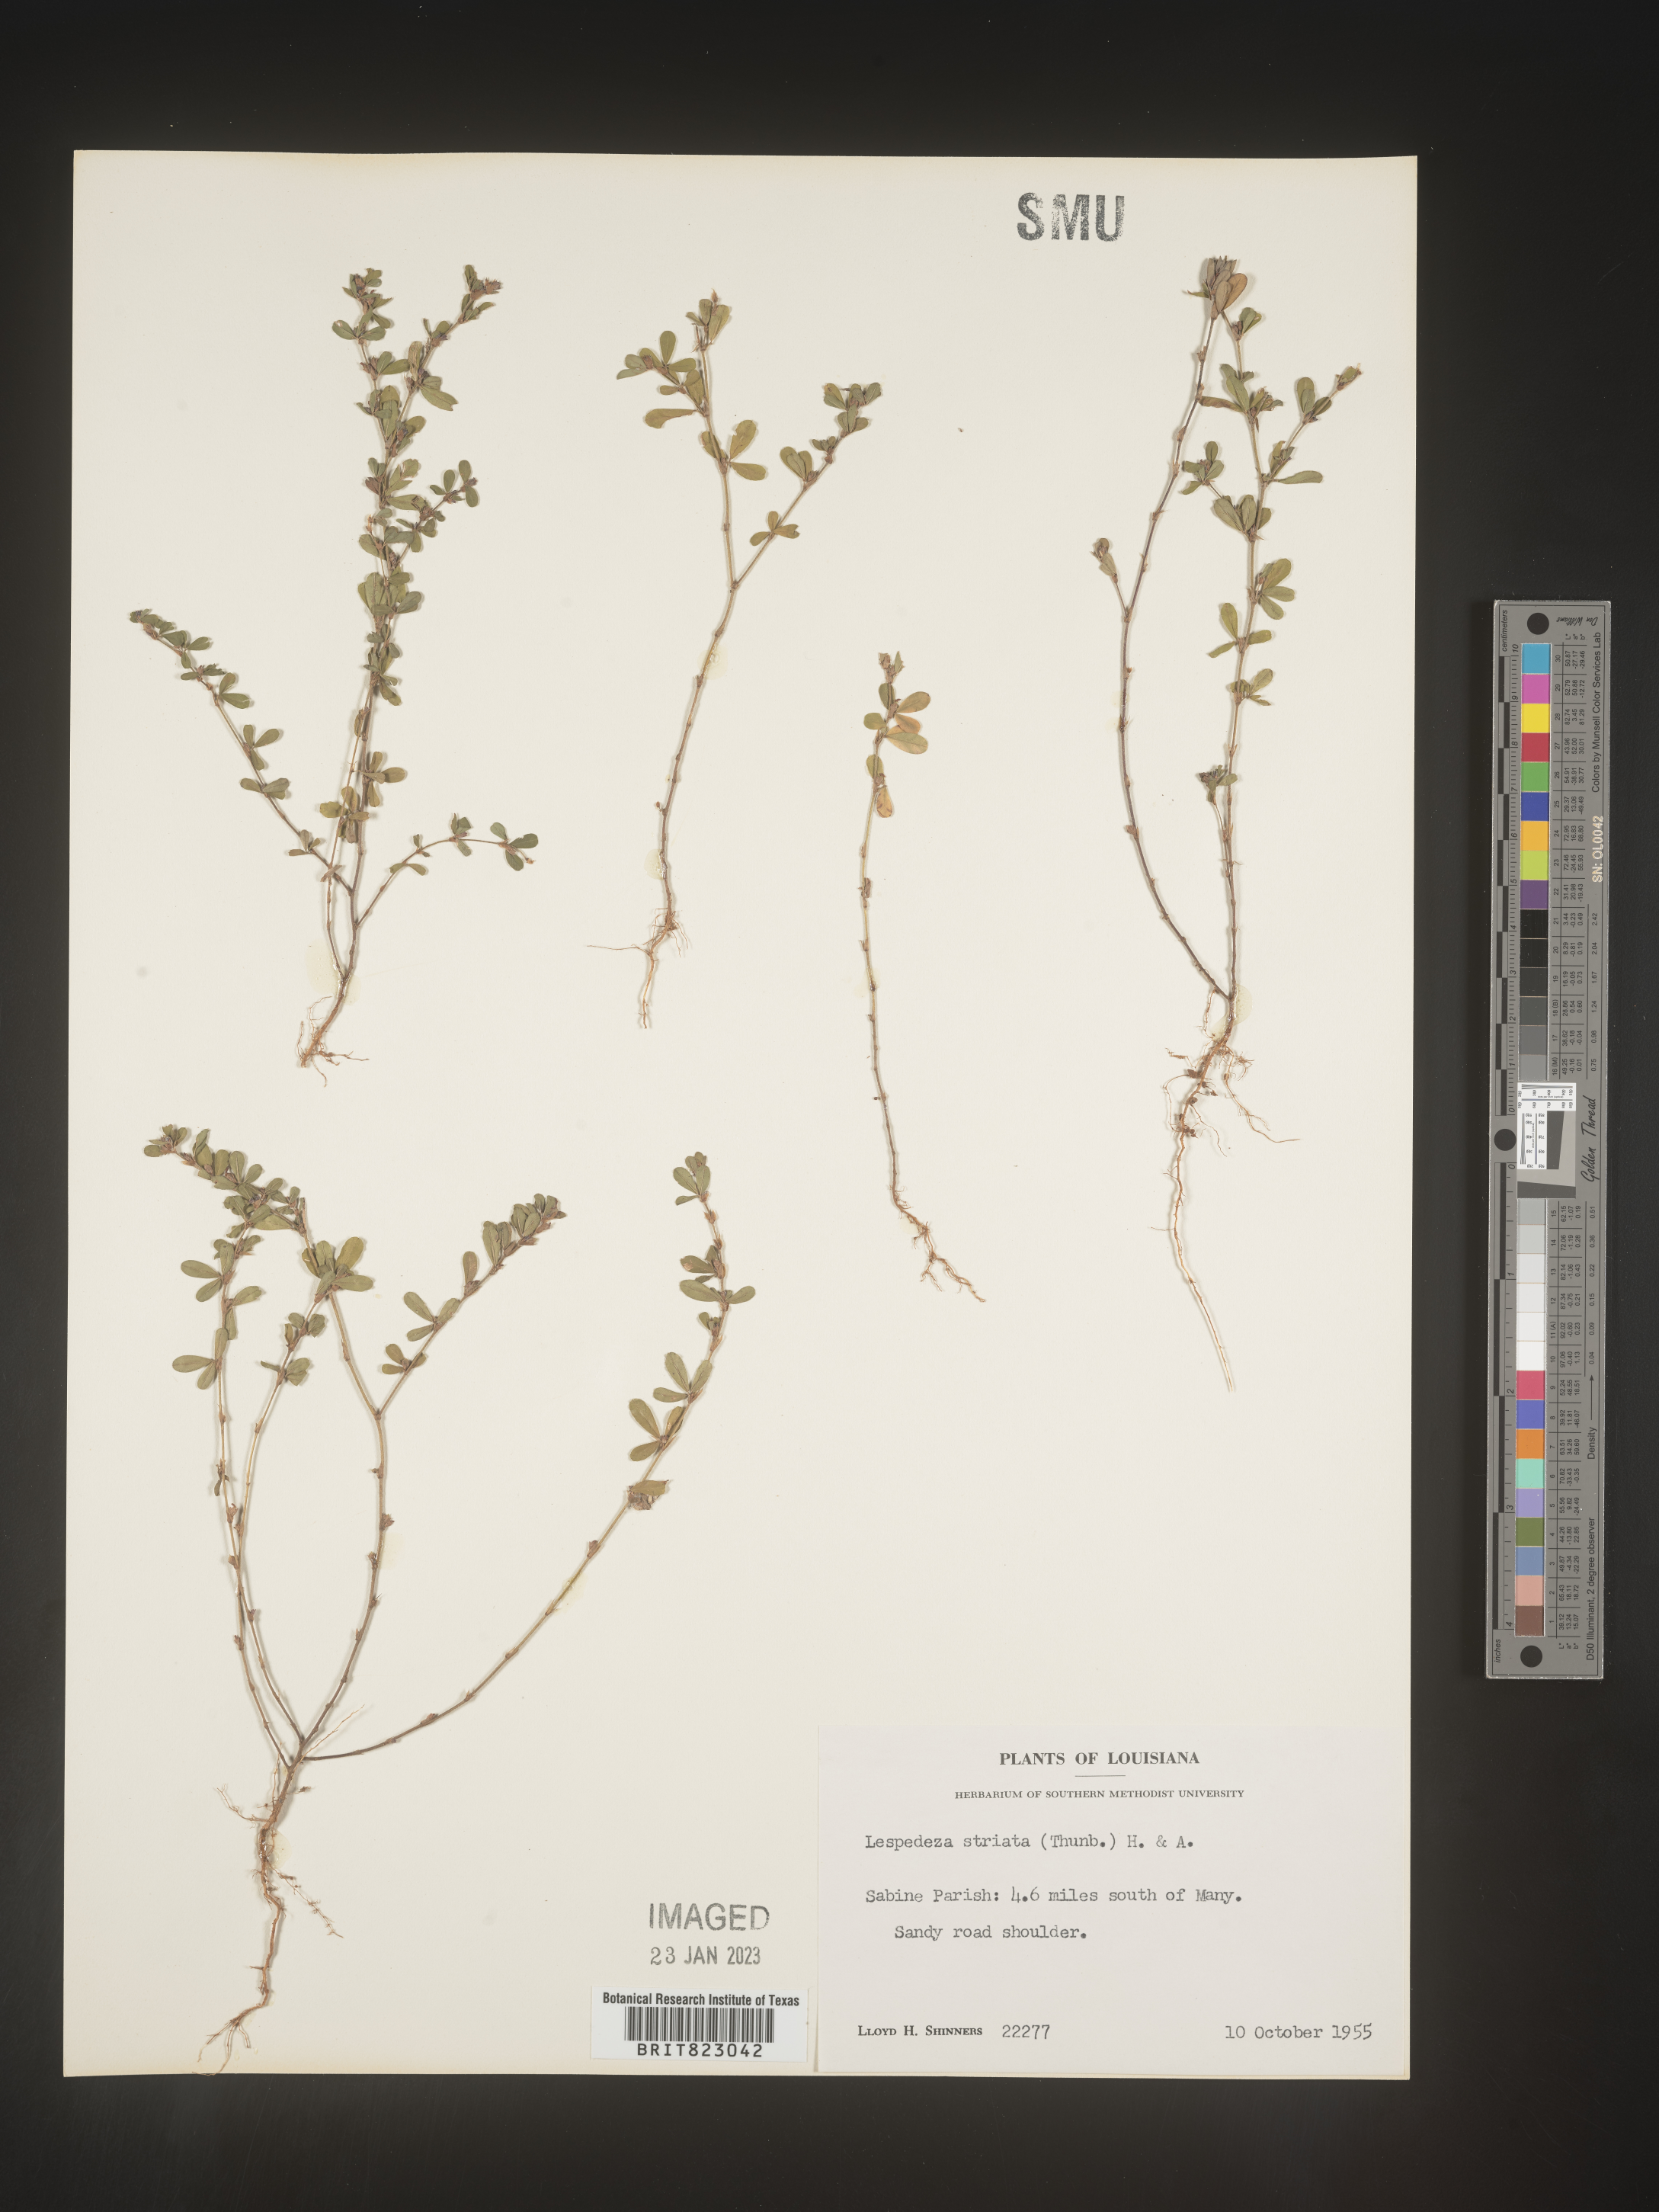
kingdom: Plantae
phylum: Tracheophyta
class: Magnoliopsida
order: Fabales
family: Fabaceae
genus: Kummerowia
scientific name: Kummerowia striata
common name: Japanese clover
